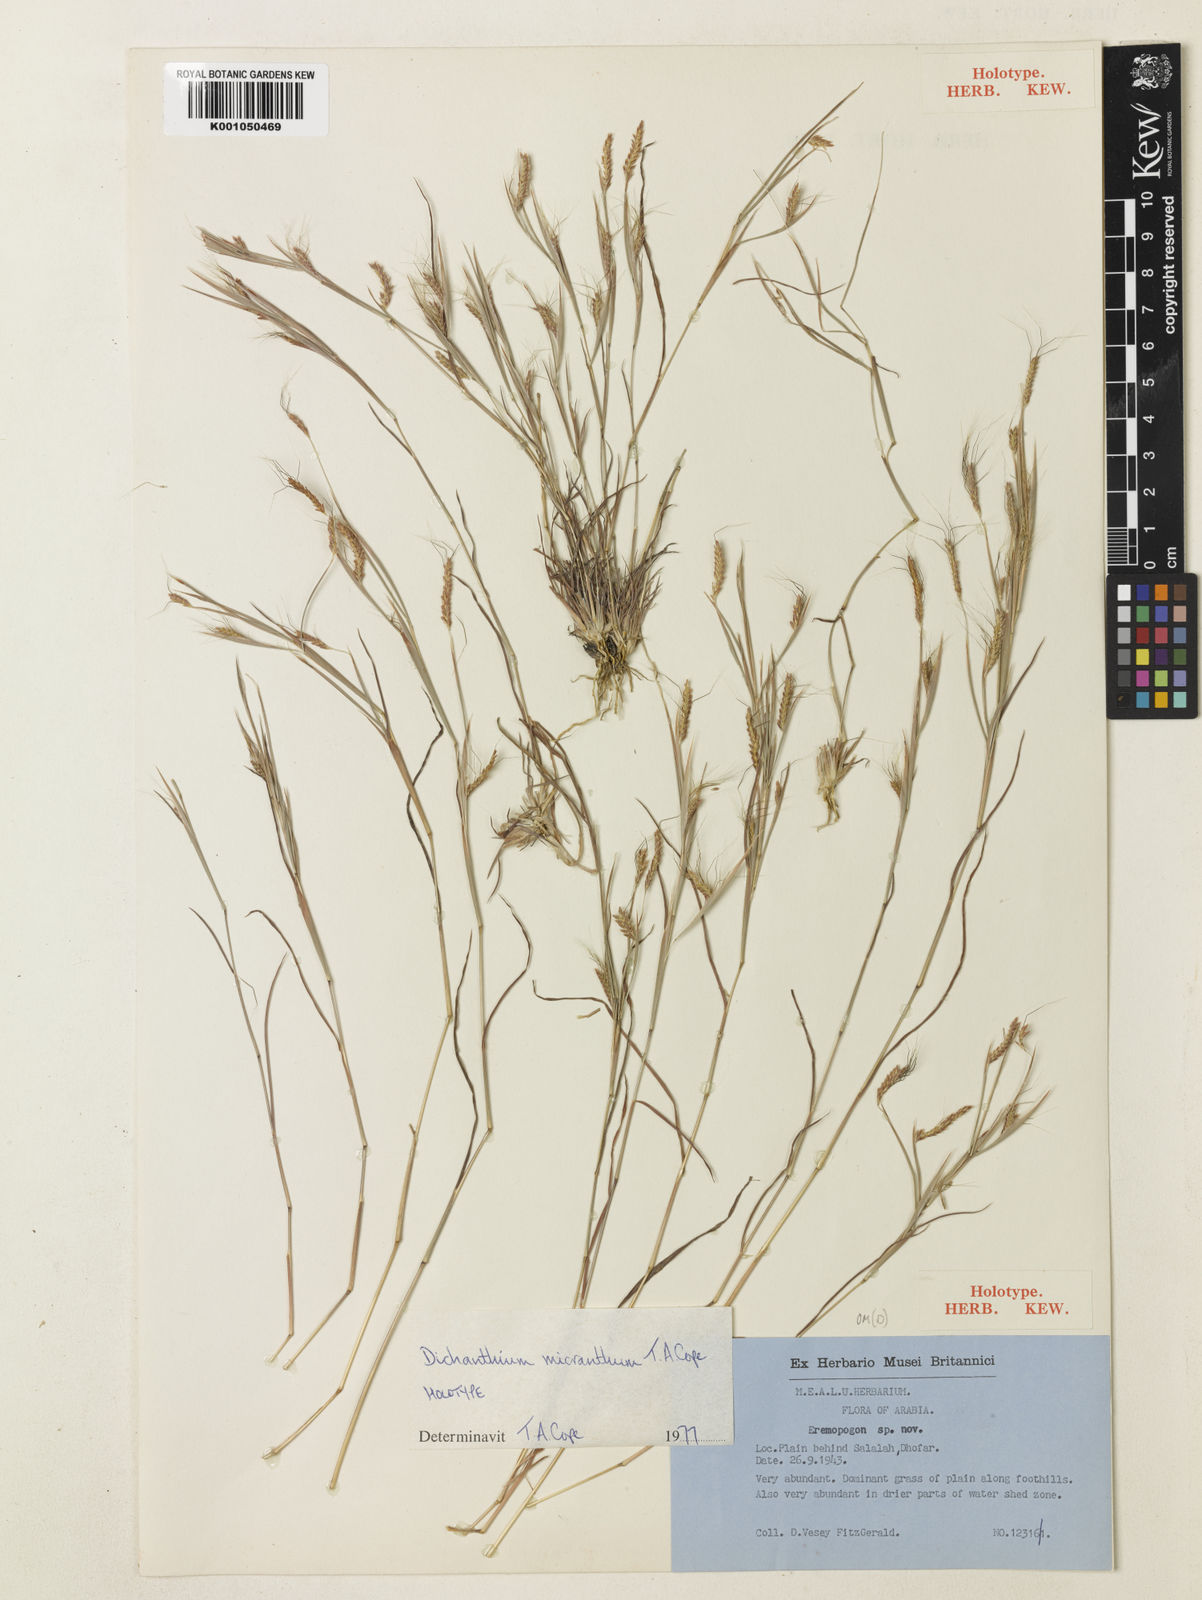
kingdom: Plantae
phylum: Tracheophyta
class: Liliopsida
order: Poales
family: Poaceae
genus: Dichanthium
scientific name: Dichanthium micranthum
